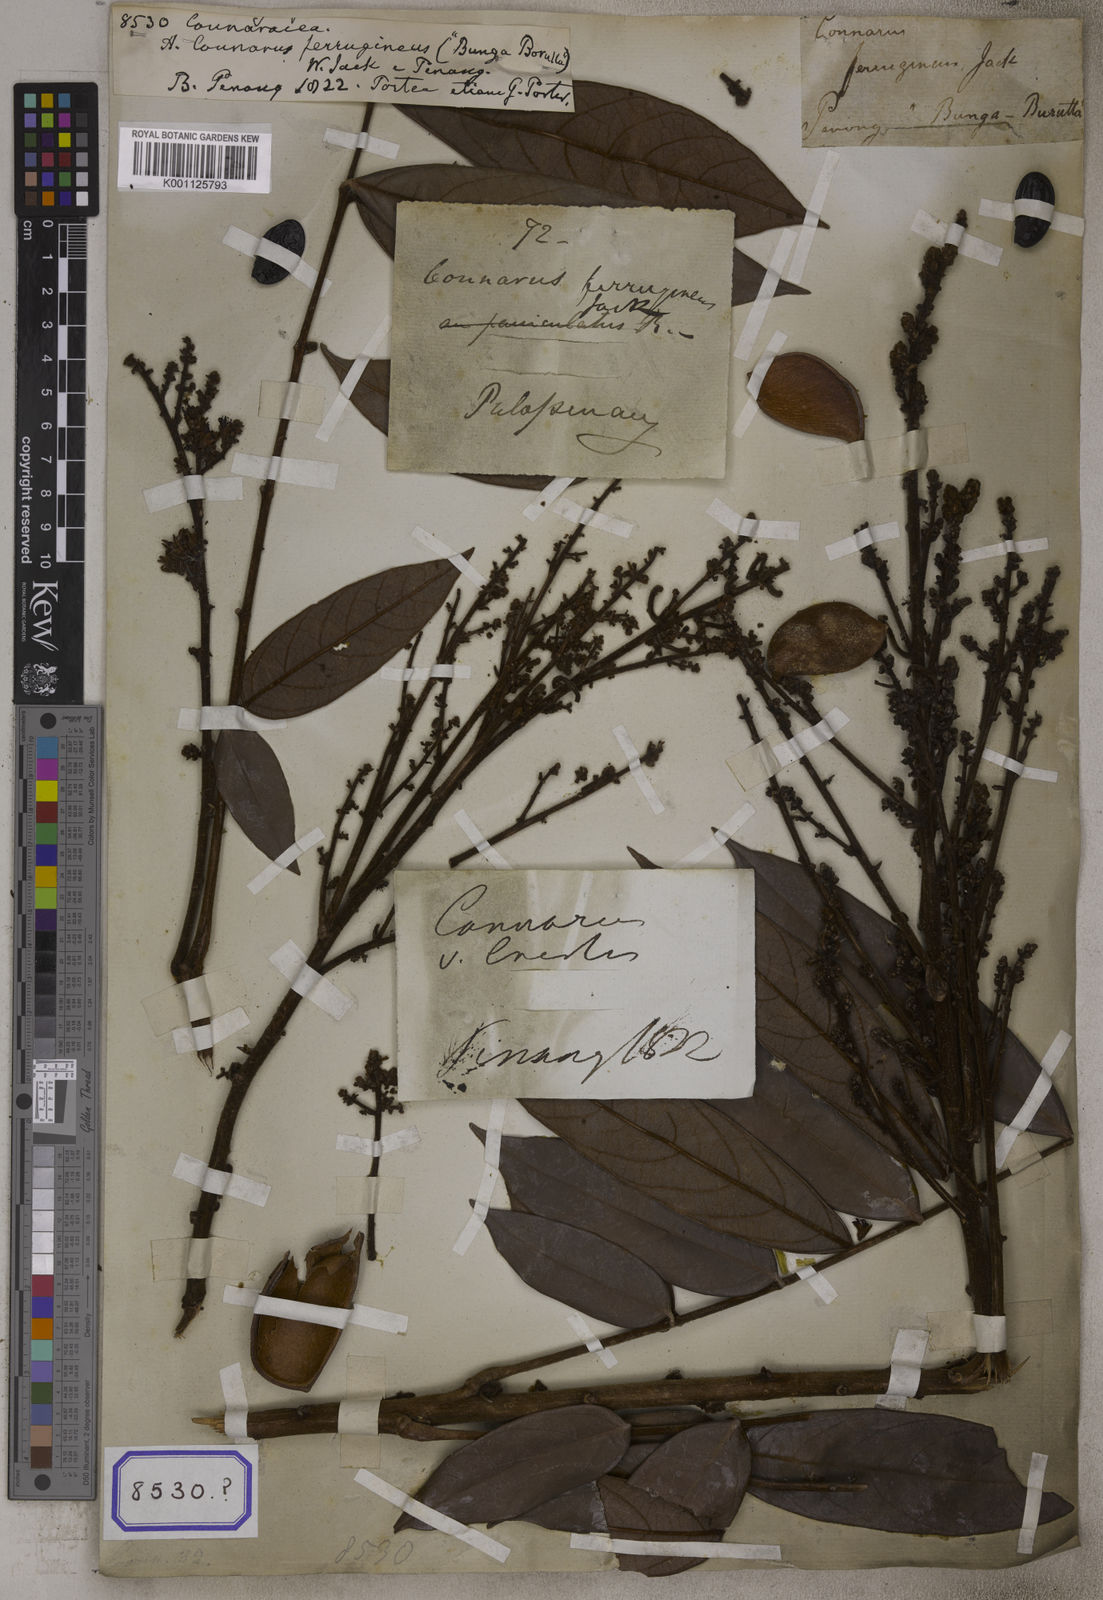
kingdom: Plantae
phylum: Tracheophyta
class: Magnoliopsida
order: Oxalidales
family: Connaraceae
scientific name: Connaraceae
